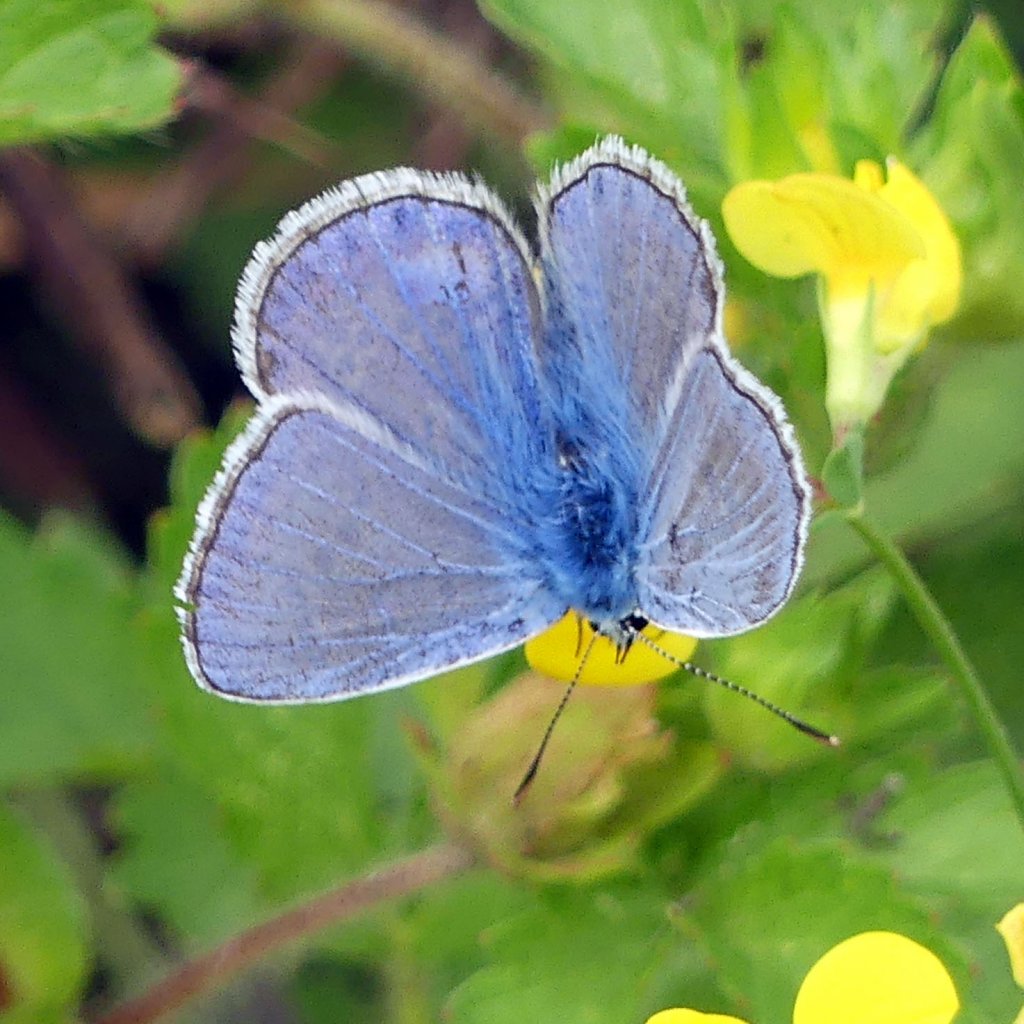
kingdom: Animalia
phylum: Arthropoda
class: Insecta
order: Lepidoptera
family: Lycaenidae
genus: Polyommatus
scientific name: Polyommatus icarus
